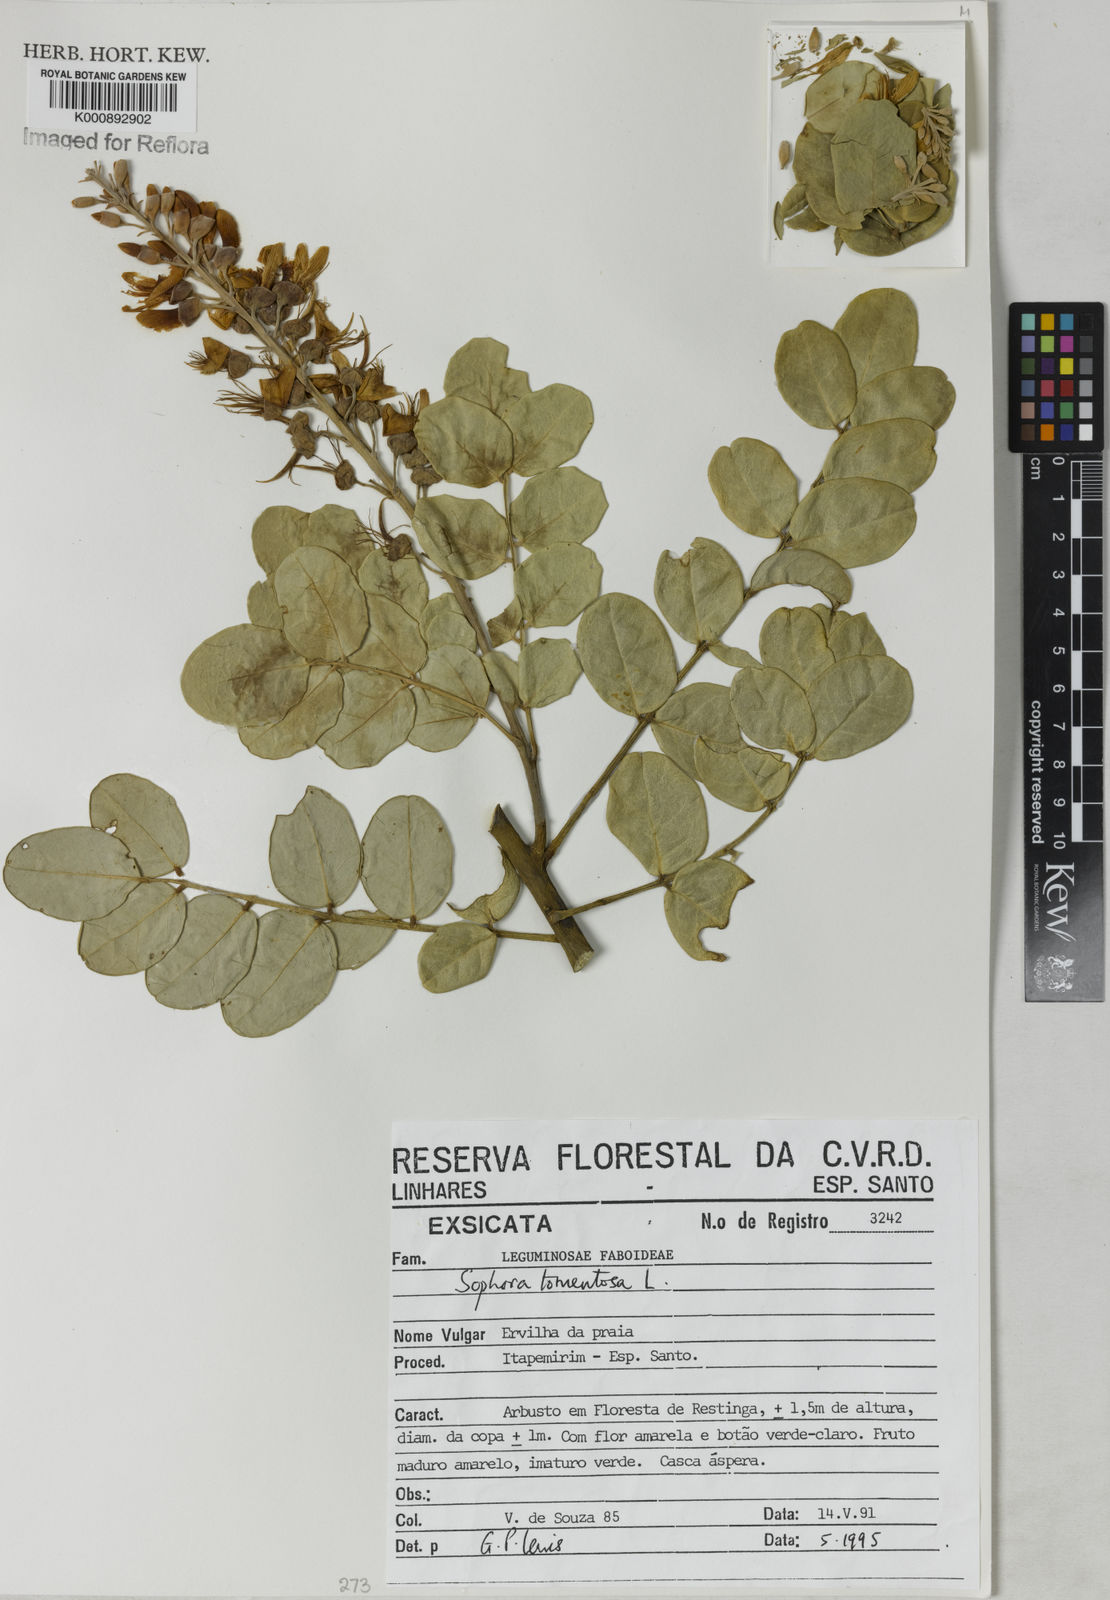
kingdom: Plantae
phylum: Tracheophyta
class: Magnoliopsida
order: Fabales
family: Fabaceae
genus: Sophora
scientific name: Sophora tomentosa
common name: Yellow necklacepod
